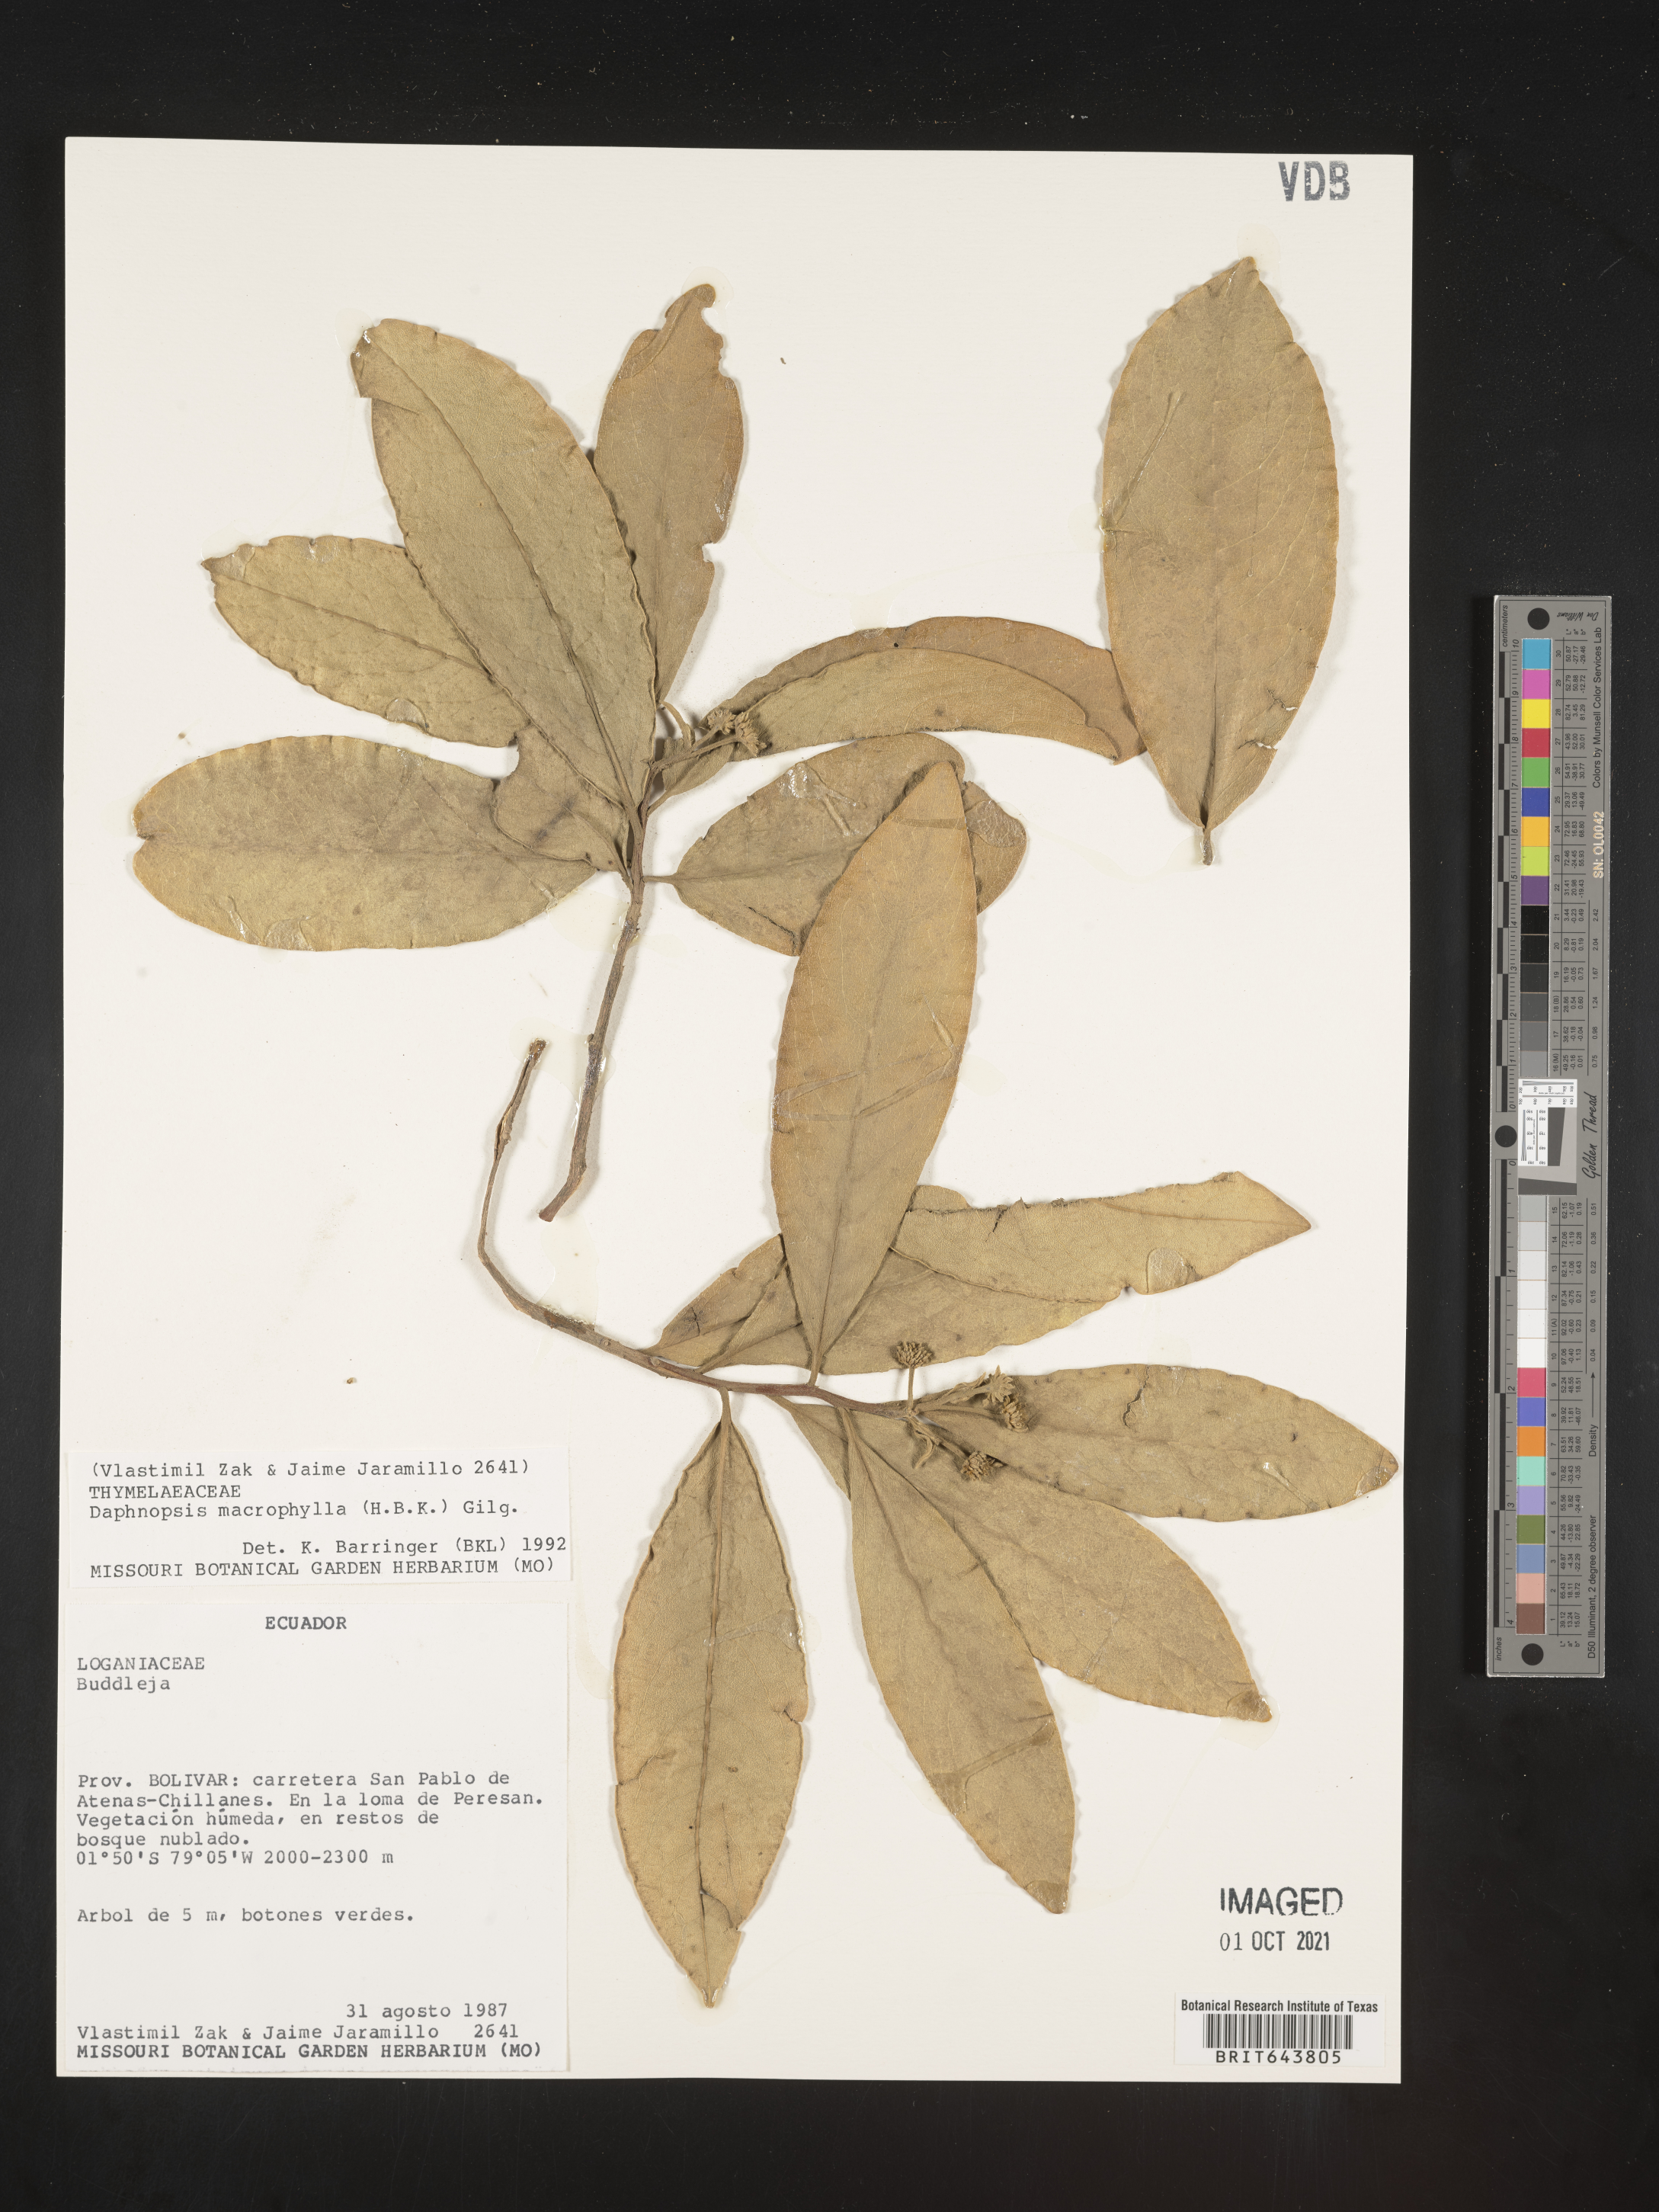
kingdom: Plantae
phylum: Tracheophyta
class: Magnoliopsida
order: Malvales
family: Thymelaeaceae
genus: Daphnopsis
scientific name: Daphnopsis
